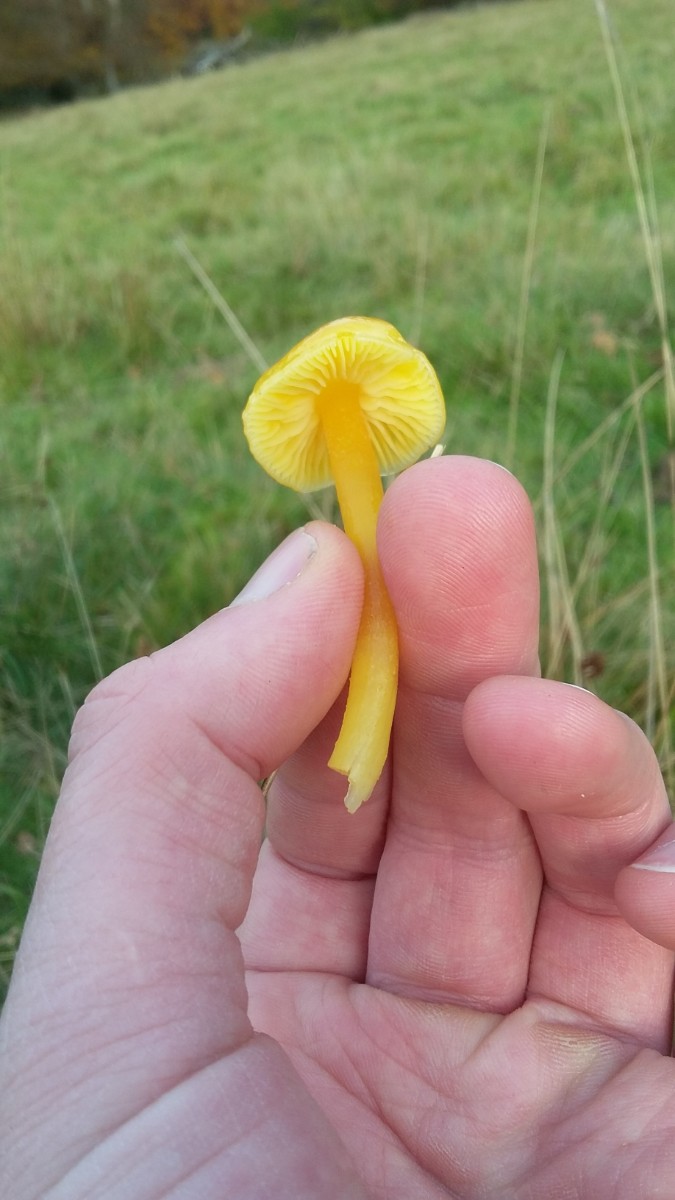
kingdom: Fungi
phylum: Basidiomycota
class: Agaricomycetes
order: Agaricales
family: Hygrophoraceae
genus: Hygrocybe
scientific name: Hygrocybe chlorophana
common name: gul vokshat
